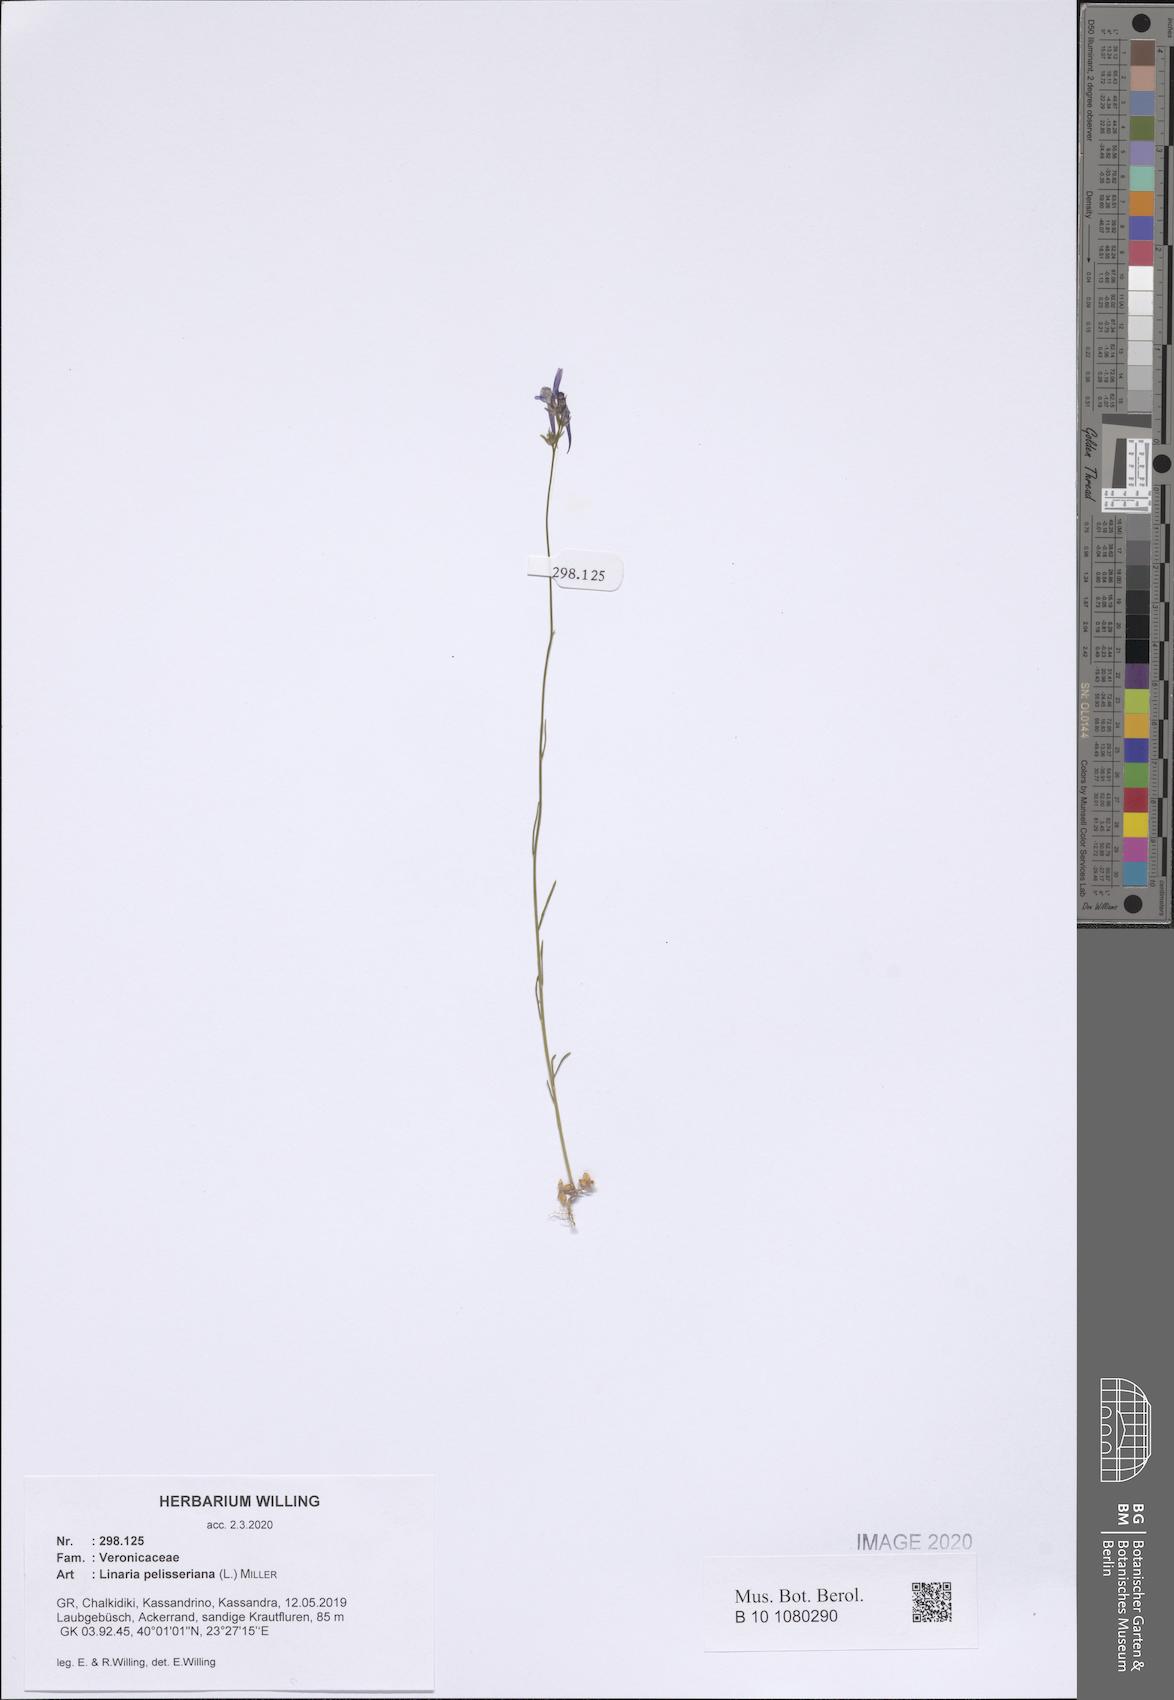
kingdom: Plantae
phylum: Tracheophyta
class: Magnoliopsida
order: Lamiales
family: Plantaginaceae
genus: Linaria
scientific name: Linaria pelisseriana
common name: Jersey toadflax
